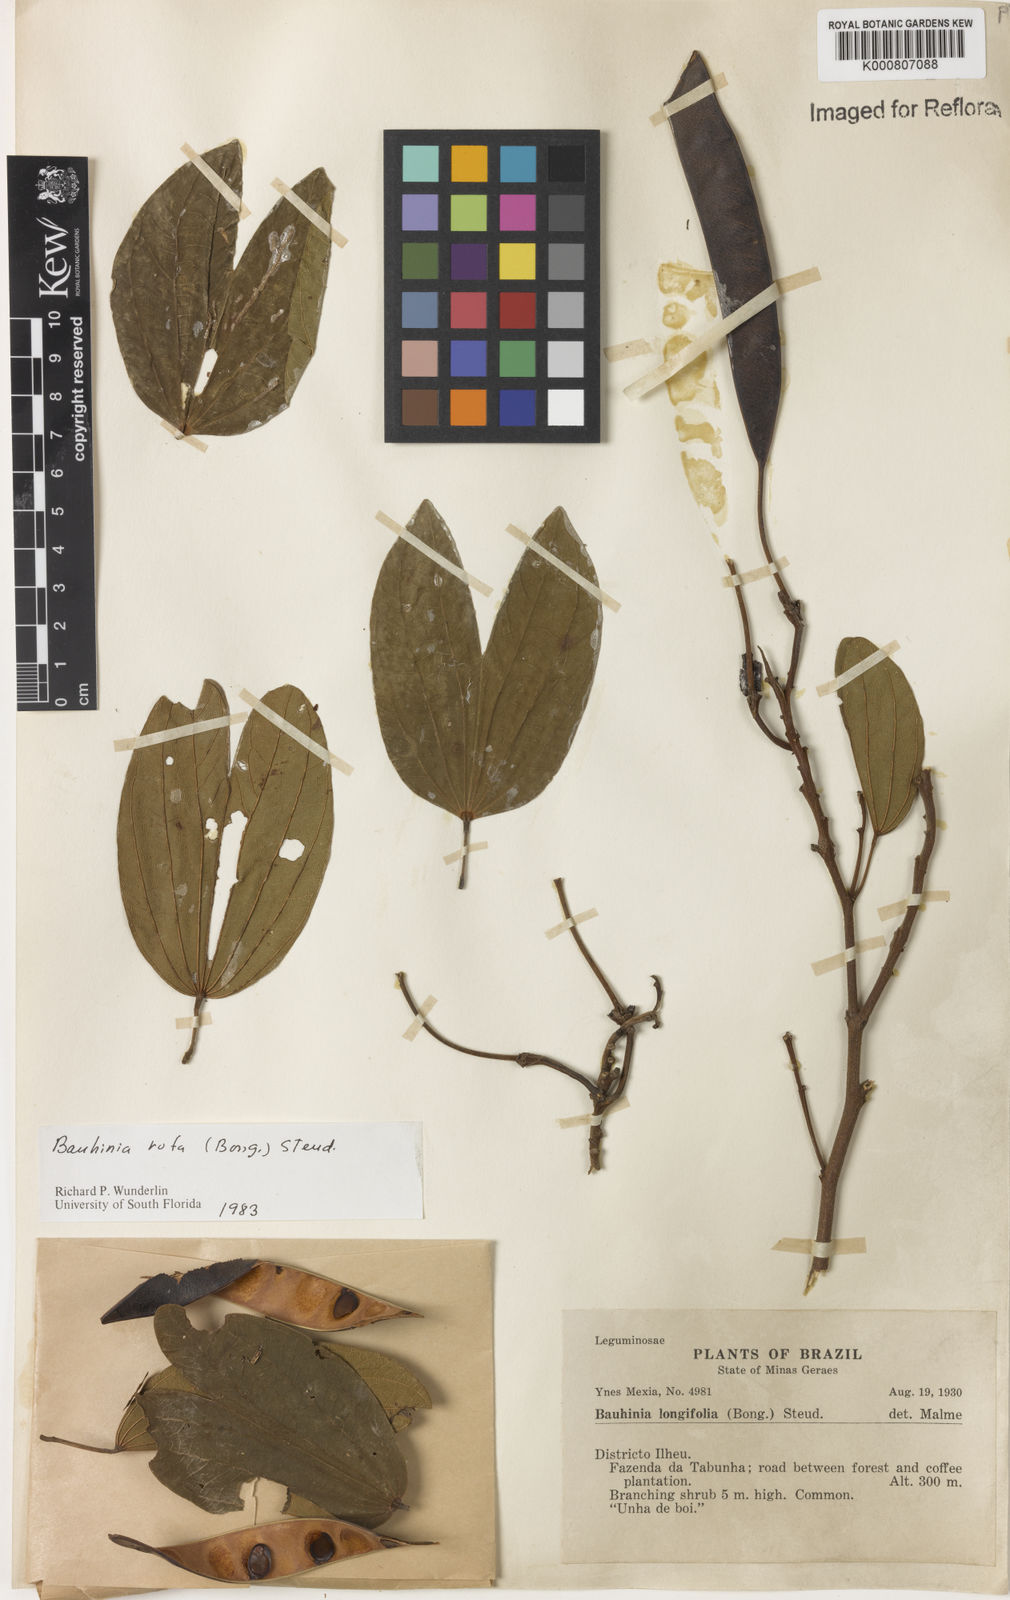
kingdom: Plantae
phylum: Tracheophyta
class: Magnoliopsida
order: Fabales
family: Fabaceae
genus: Bauhinia
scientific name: Bauhinia rufa
